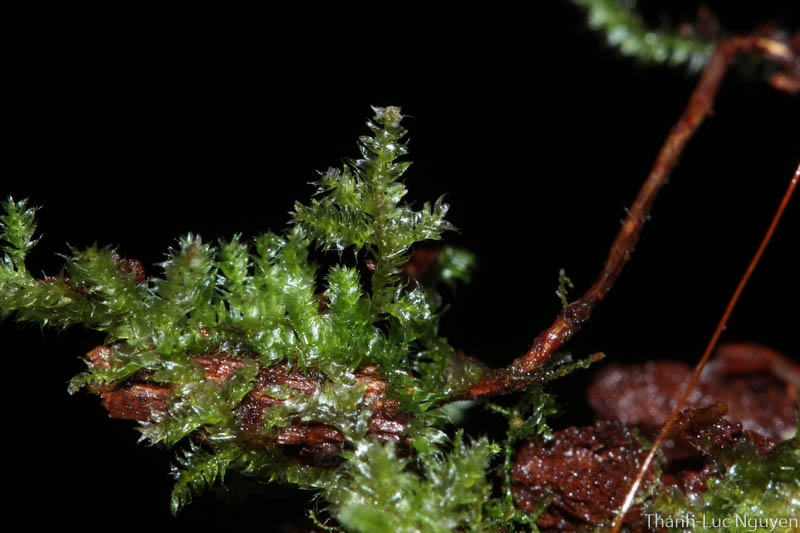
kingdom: Plantae
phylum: Bryophyta
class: Bryopsida
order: Hypnales
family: Hypnaceae
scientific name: Hypnaceae
